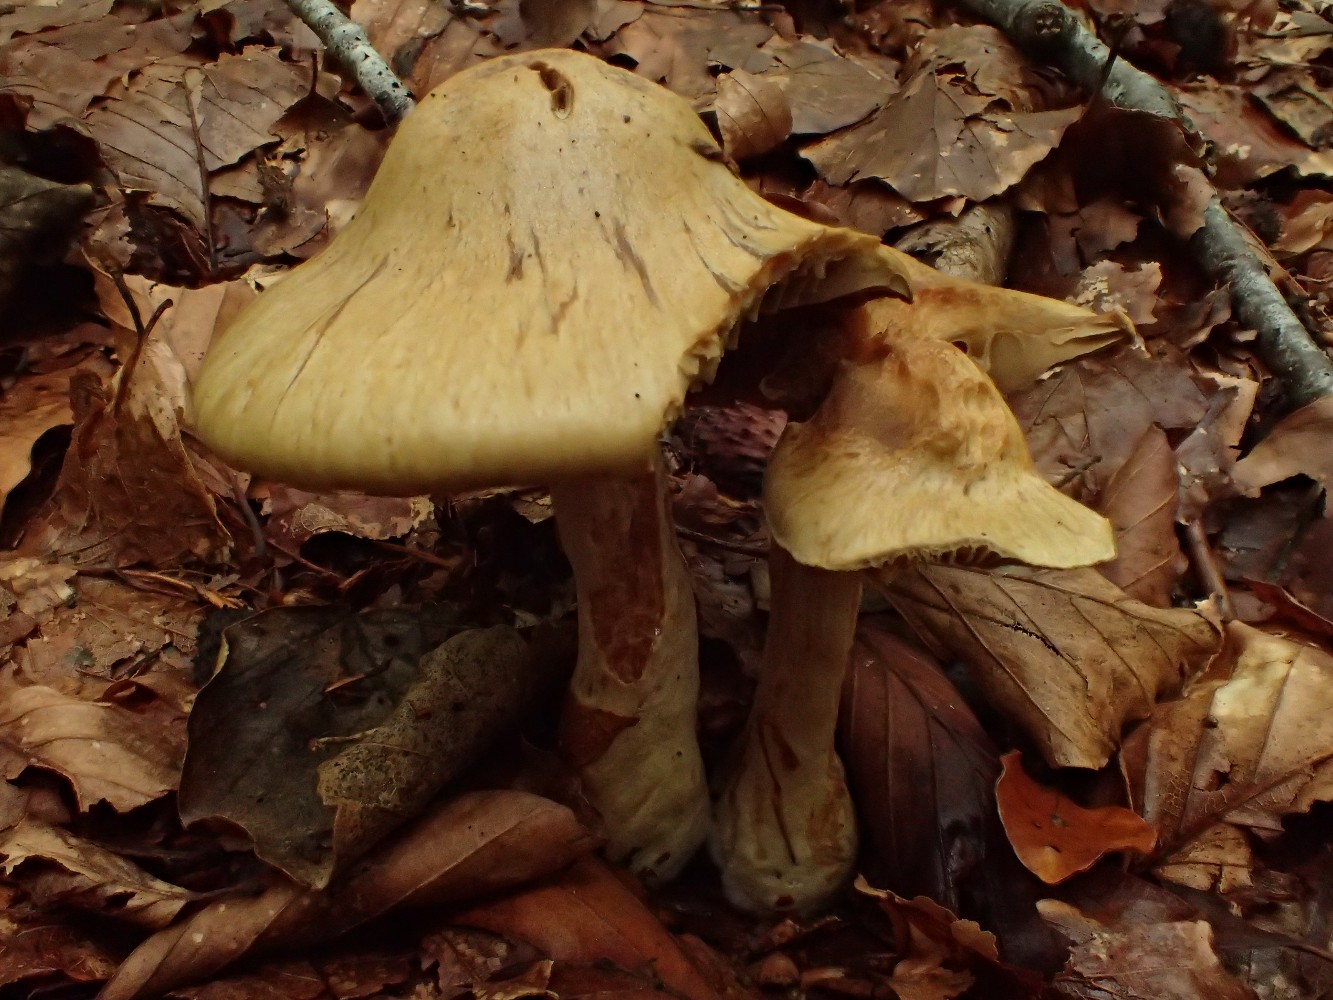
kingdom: Fungi
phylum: Basidiomycota
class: Agaricomycetes
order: Agaricales
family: Cortinariaceae
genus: Cortinarius
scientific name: Cortinarius subtortus
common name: olivengul slørhat
